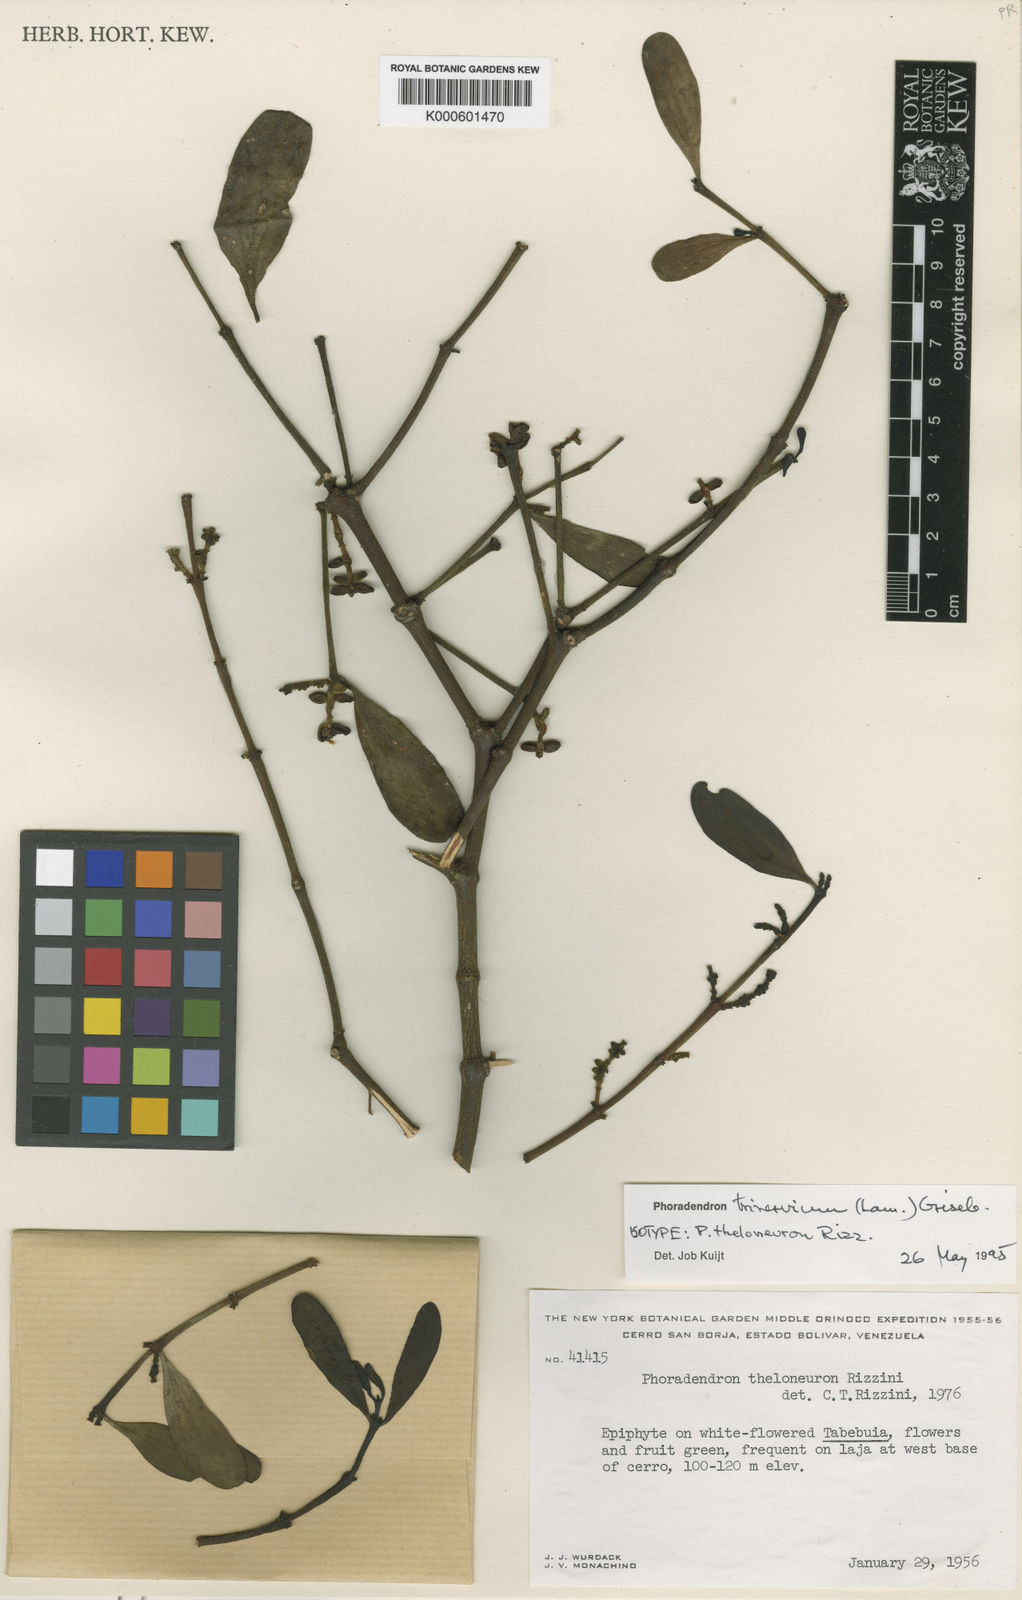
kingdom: Plantae
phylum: Tracheophyta
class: Magnoliopsida
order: Santalales
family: Viscaceae
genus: Phoradendron
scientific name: Phoradendron trinervium
